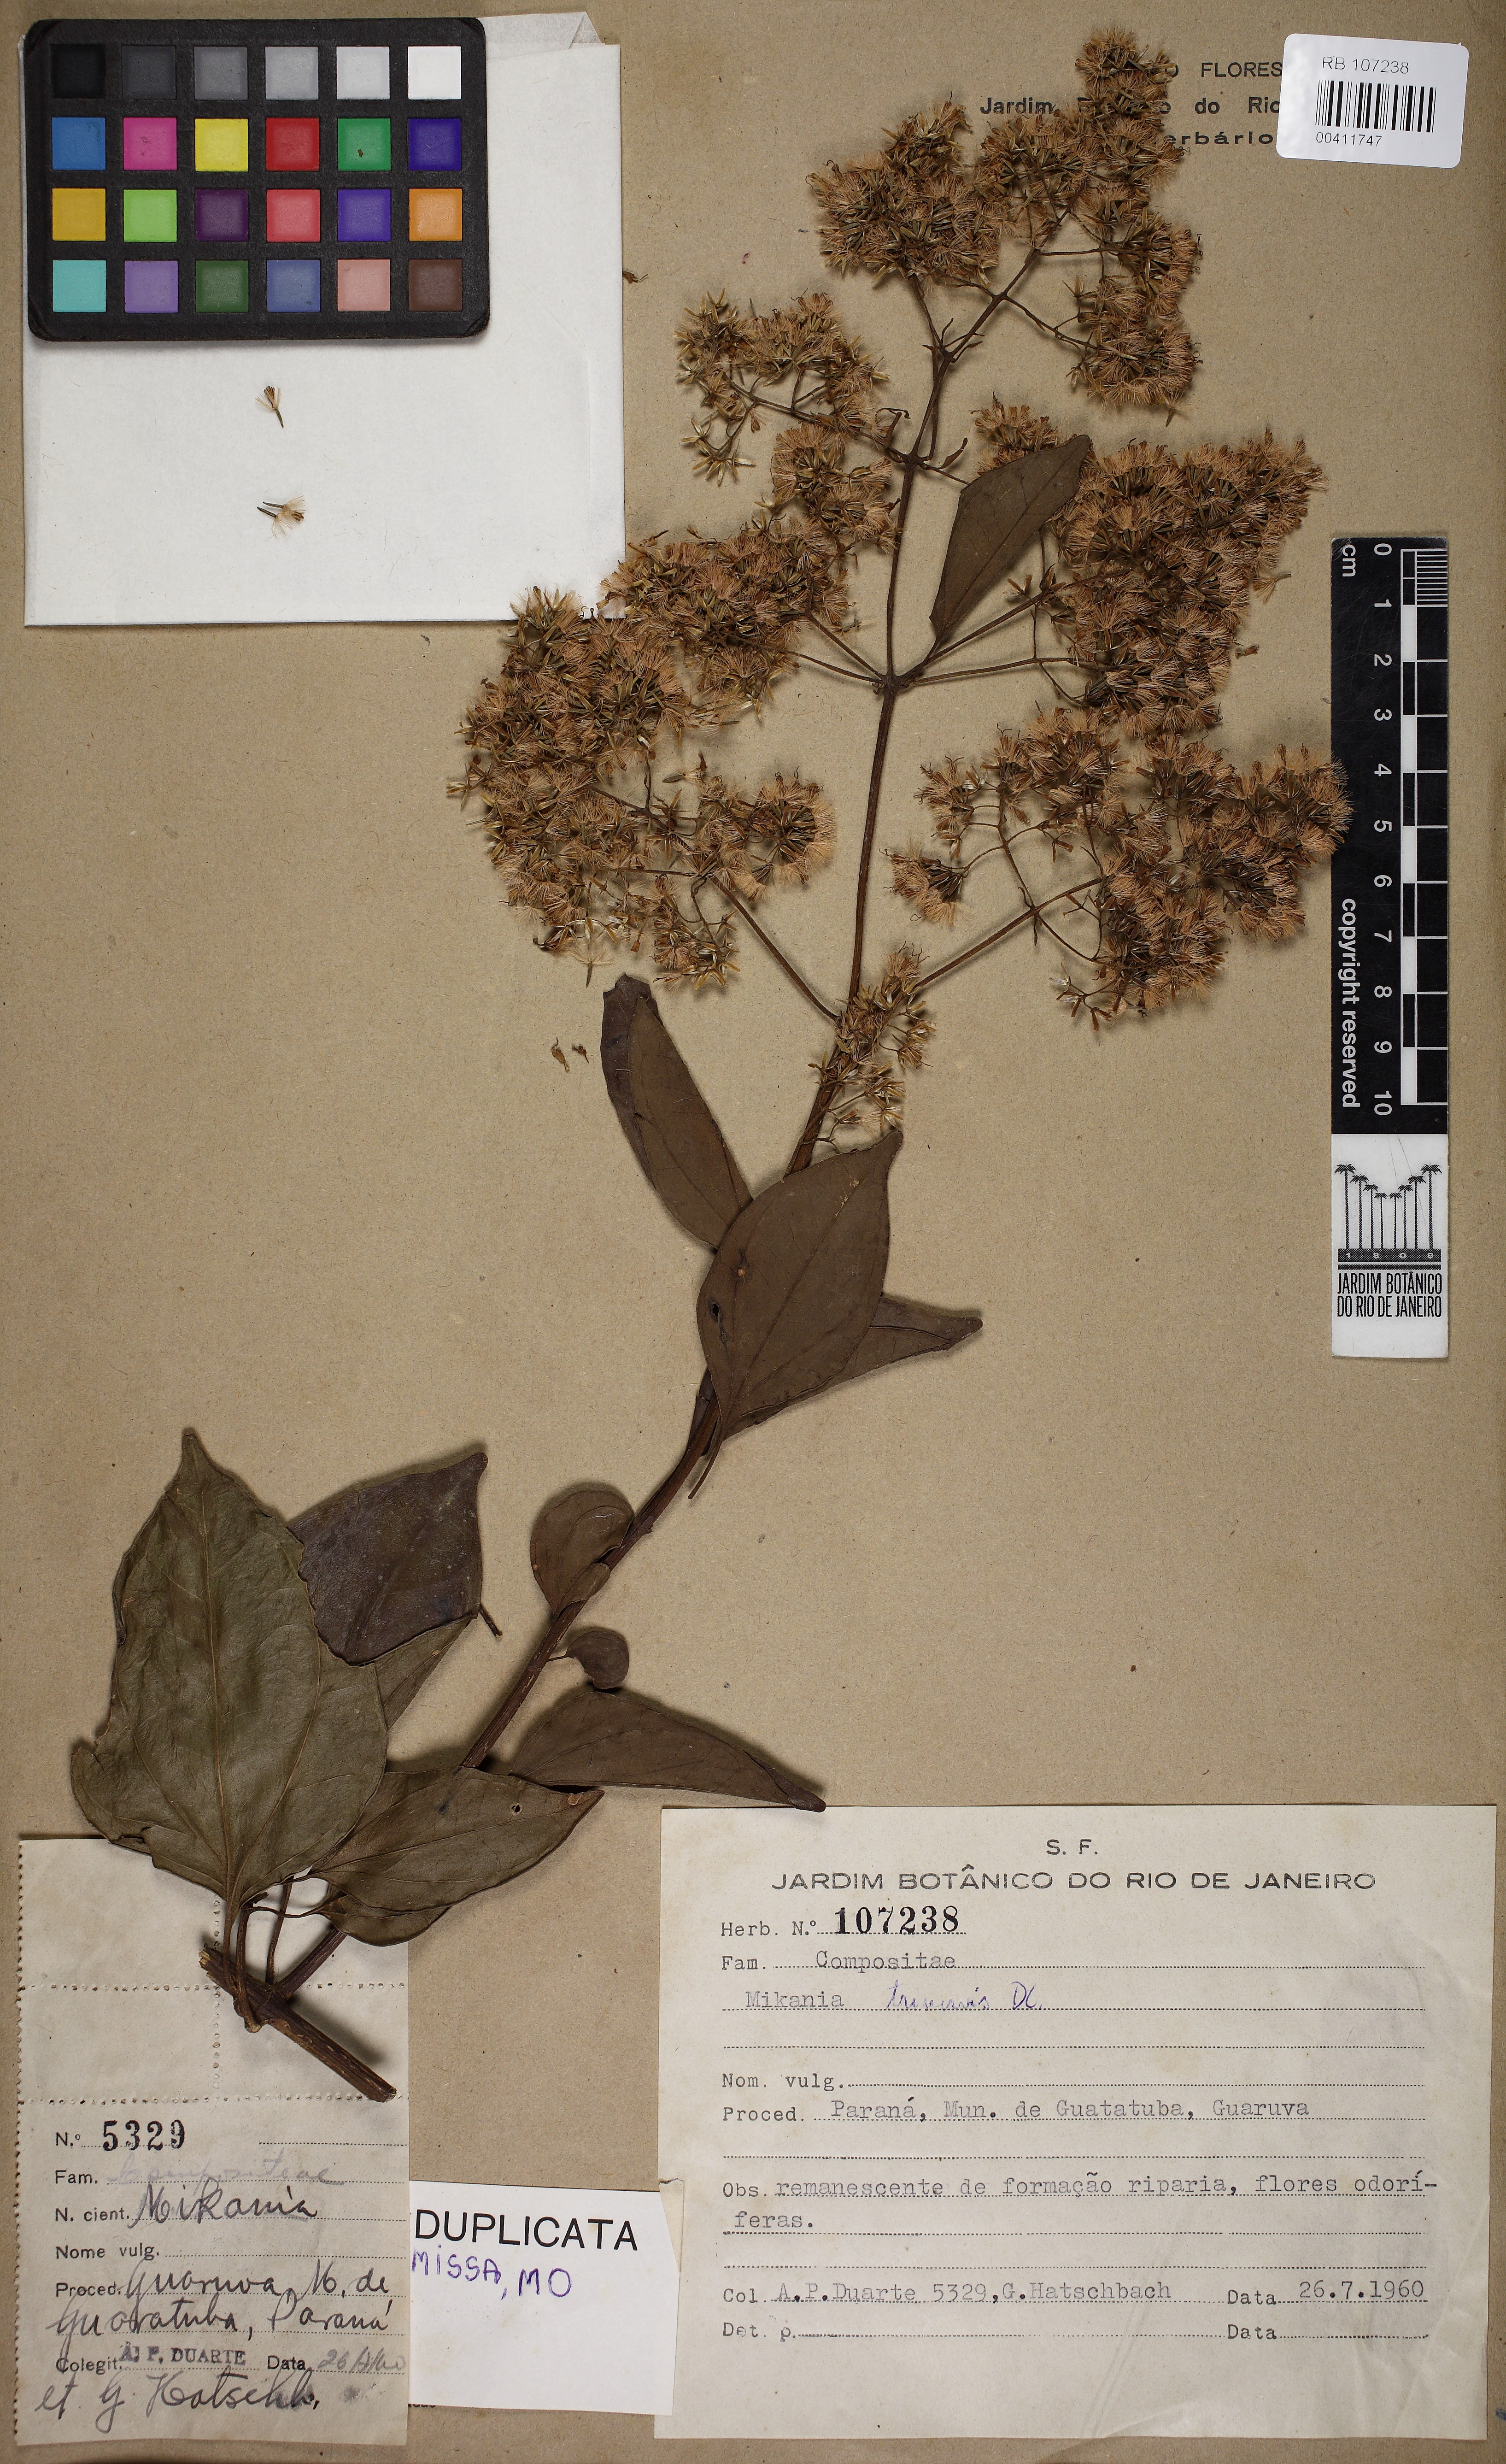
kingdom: Plantae
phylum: Tracheophyta
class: Magnoliopsida
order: Asterales
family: Asteraceae
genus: Mikania
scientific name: Mikania trinervis
